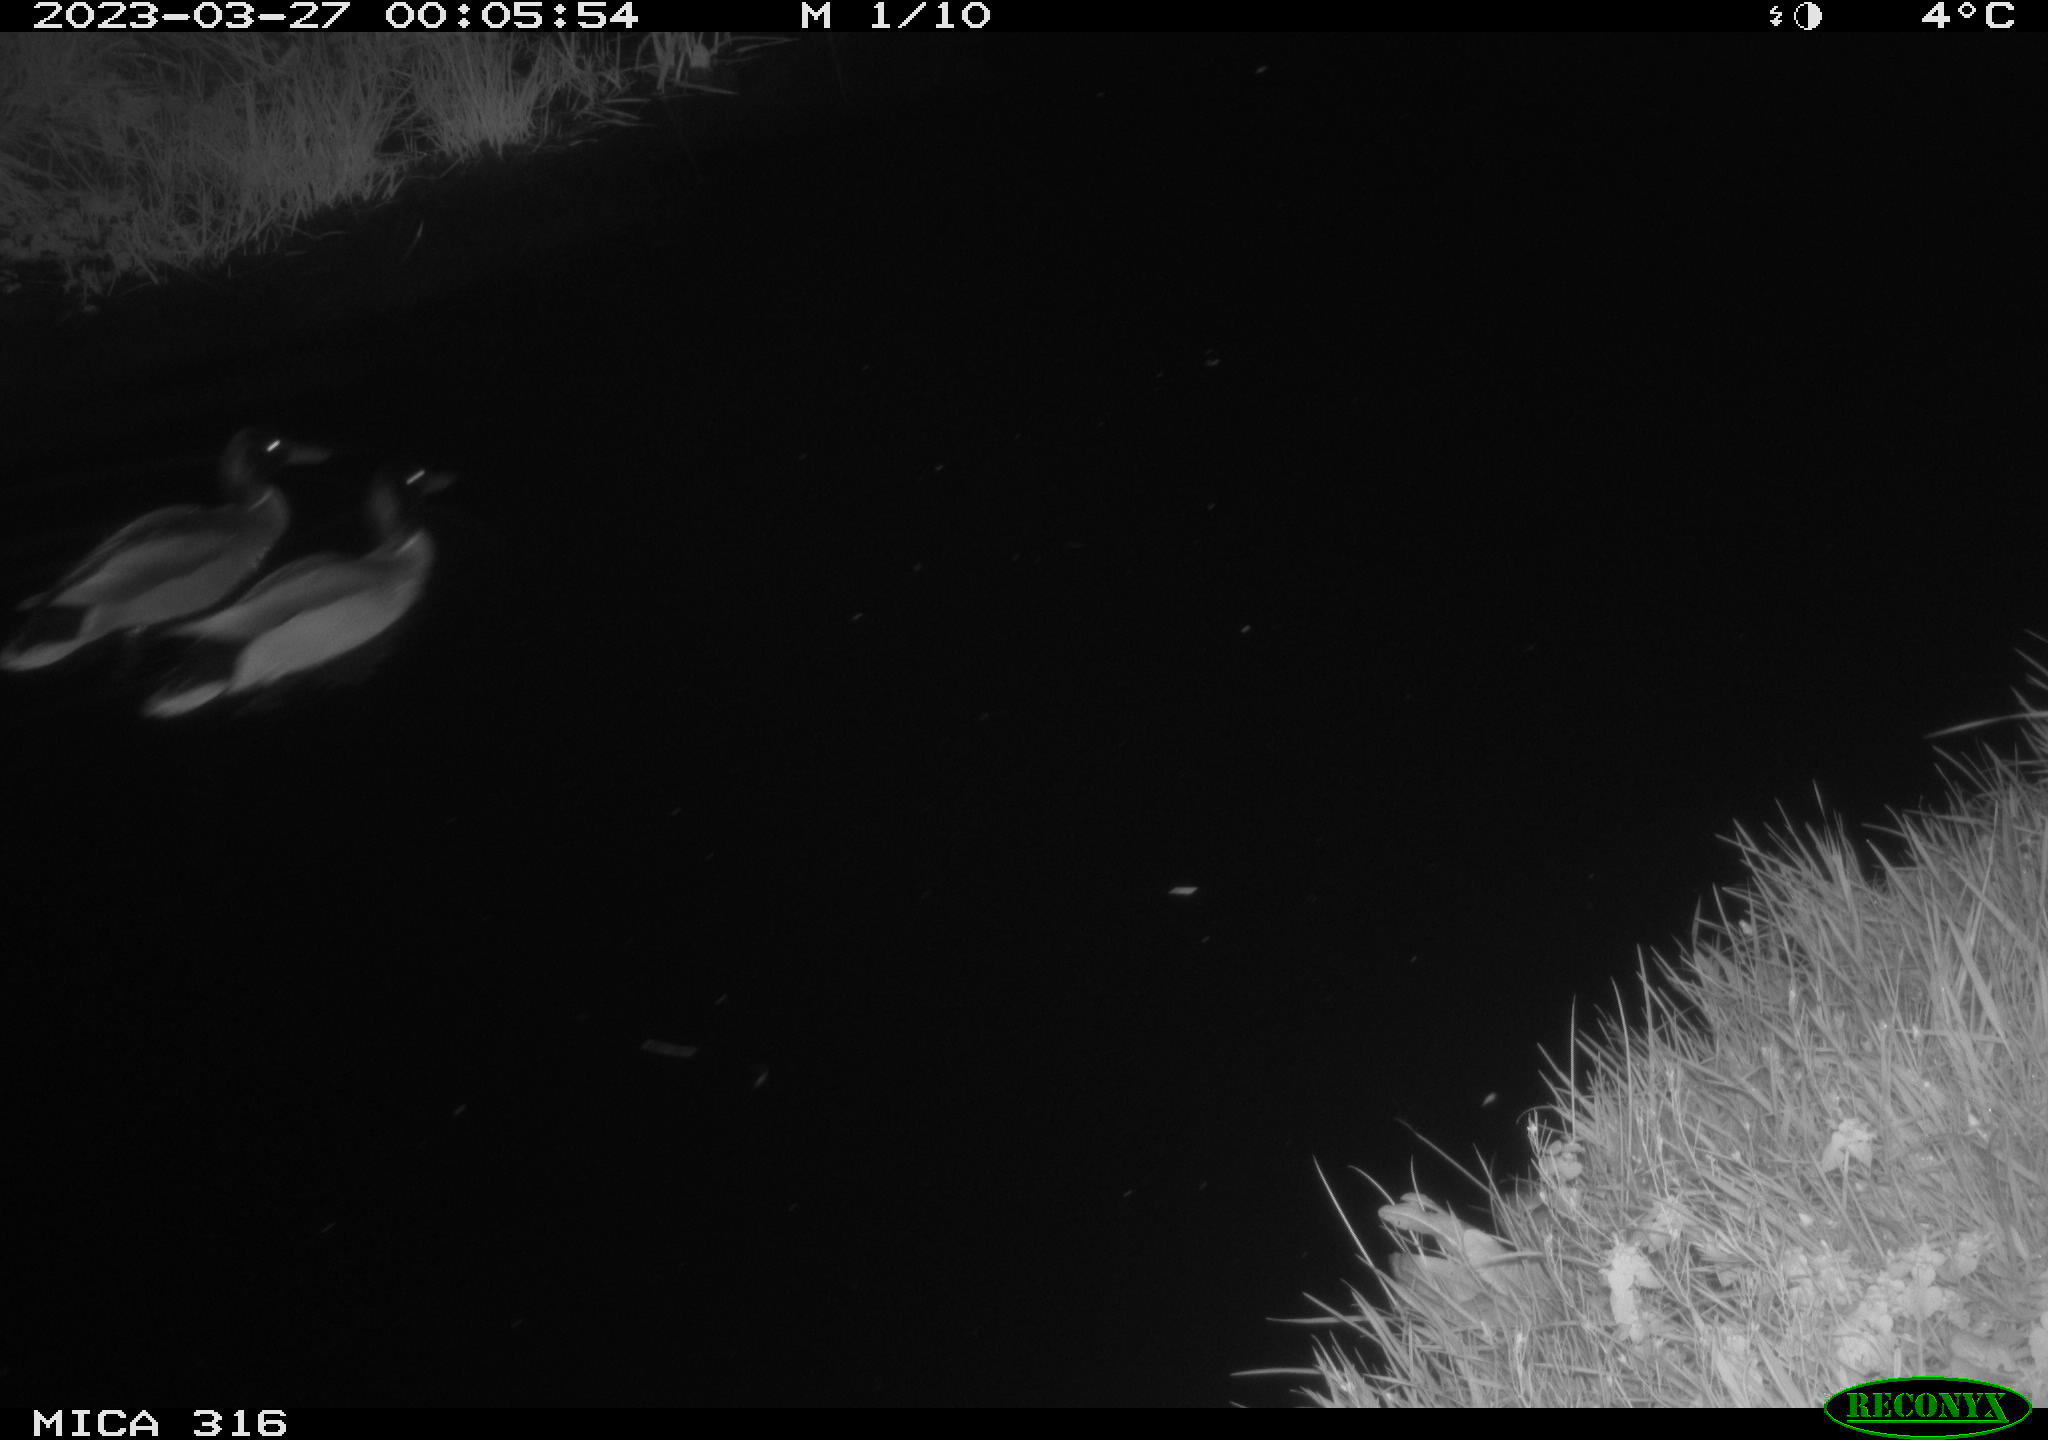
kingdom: Animalia
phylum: Chordata
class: Aves
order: Anseriformes
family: Anatidae
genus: Anas
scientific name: Anas
